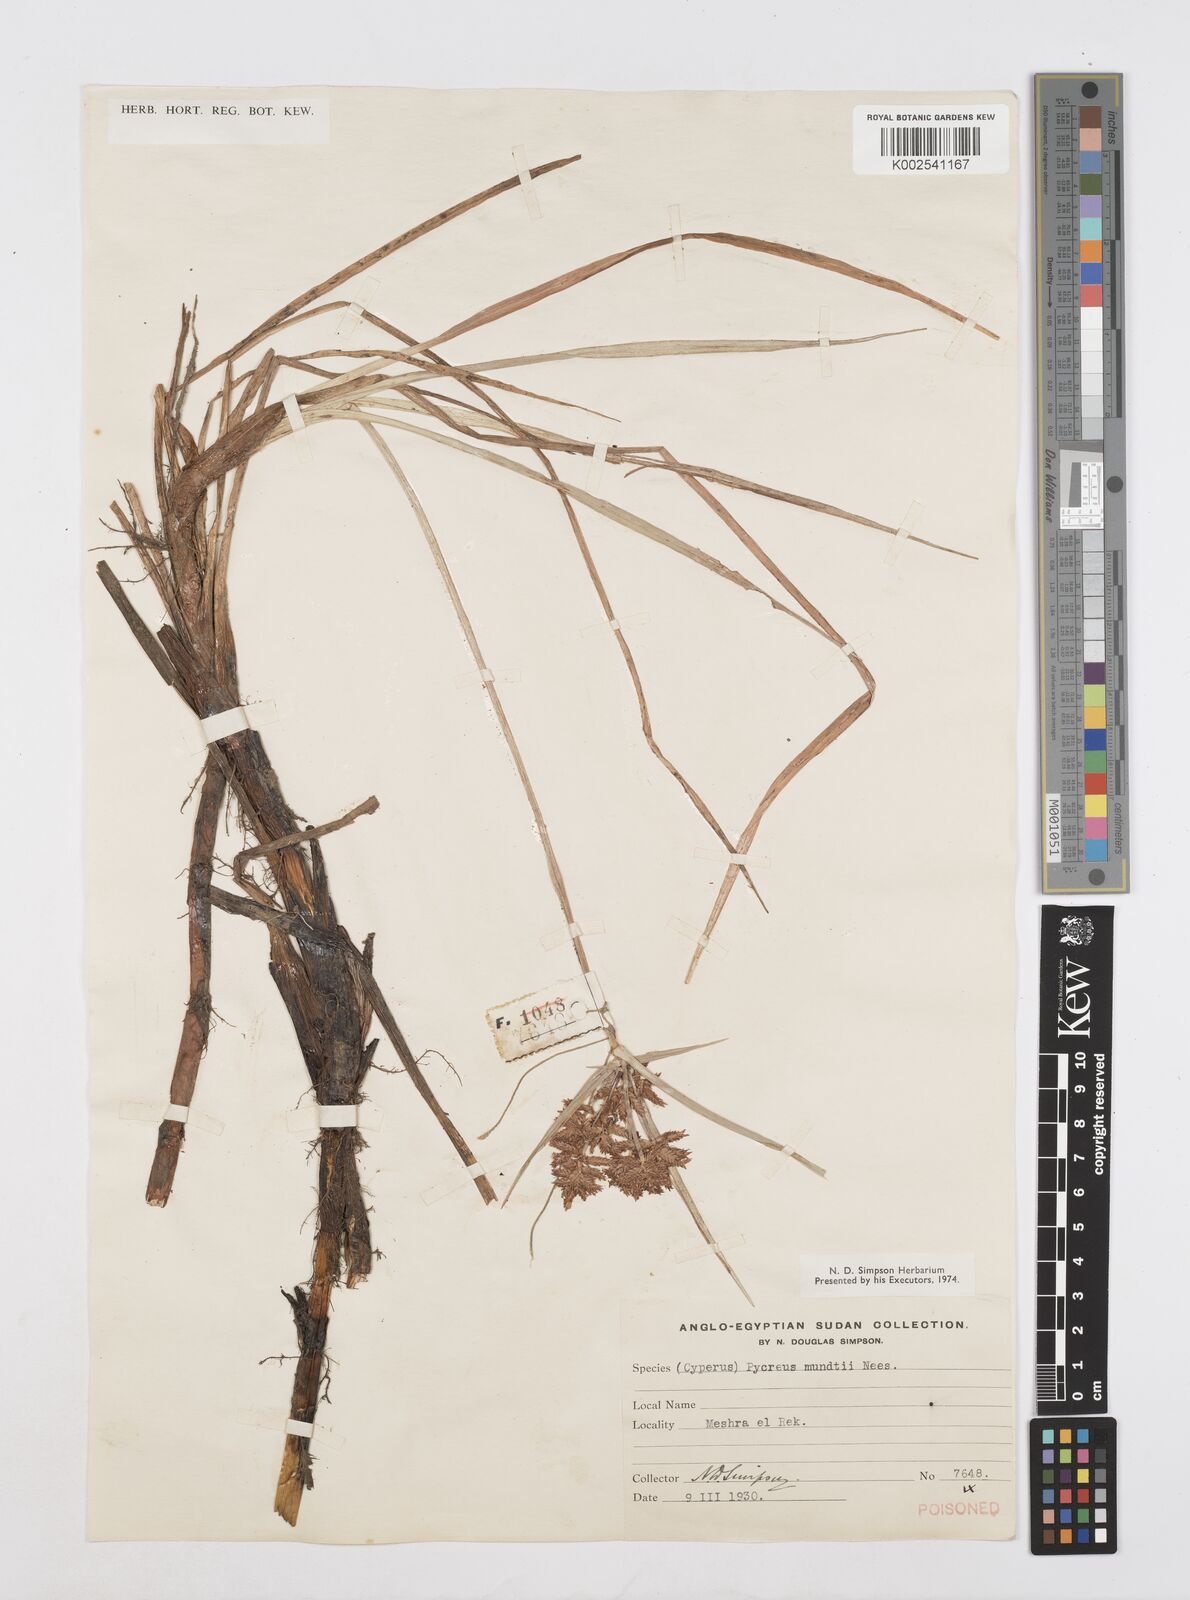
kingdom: Plantae
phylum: Tracheophyta
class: Liliopsida
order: Poales
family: Cyperaceae
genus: Cyperus
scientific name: Cyperus mundii
